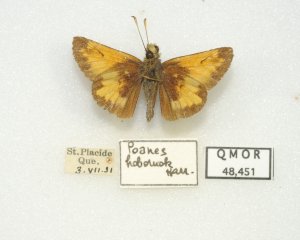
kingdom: Animalia
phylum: Arthropoda
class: Insecta
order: Lepidoptera
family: Hesperiidae
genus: Lon
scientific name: Lon hobomok
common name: Hobomok Skipper
